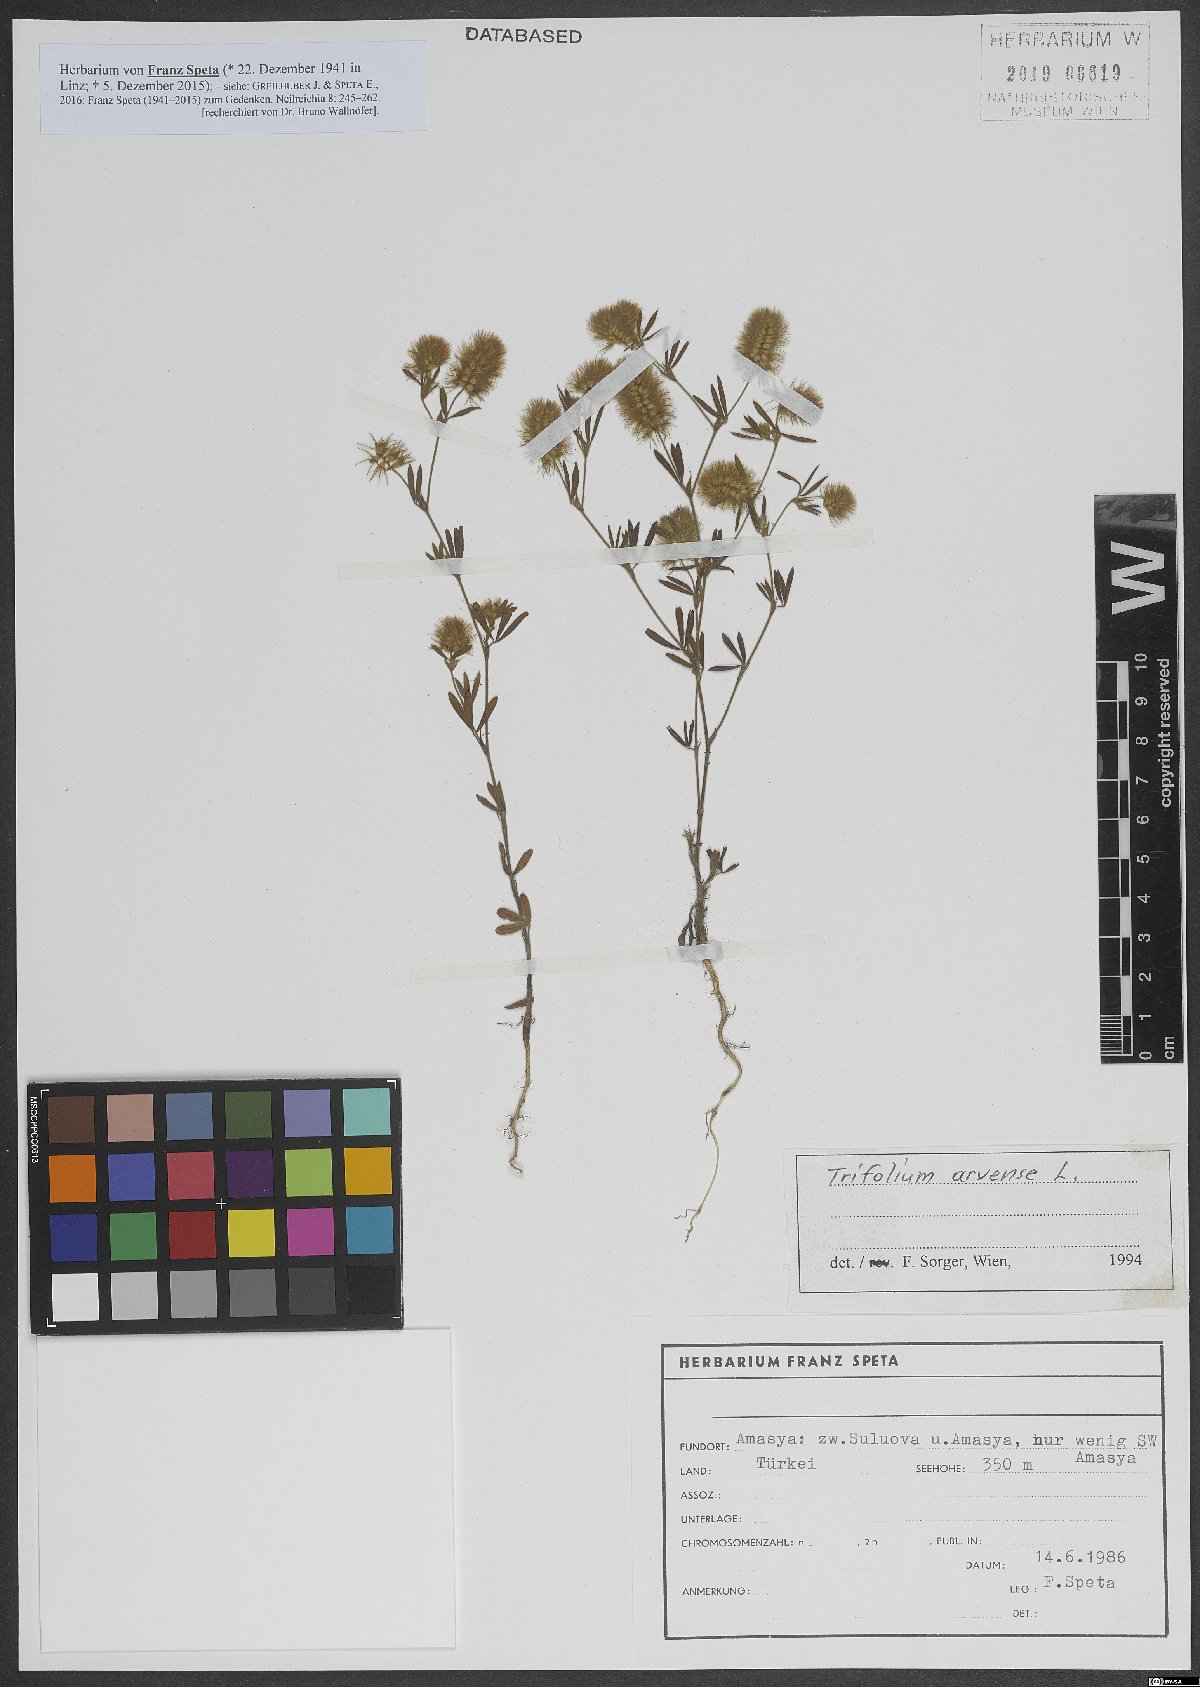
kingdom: Plantae
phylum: Tracheophyta
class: Magnoliopsida
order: Fabales
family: Fabaceae
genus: Trifolium
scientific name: Trifolium arvense
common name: Hare's-foot clover
